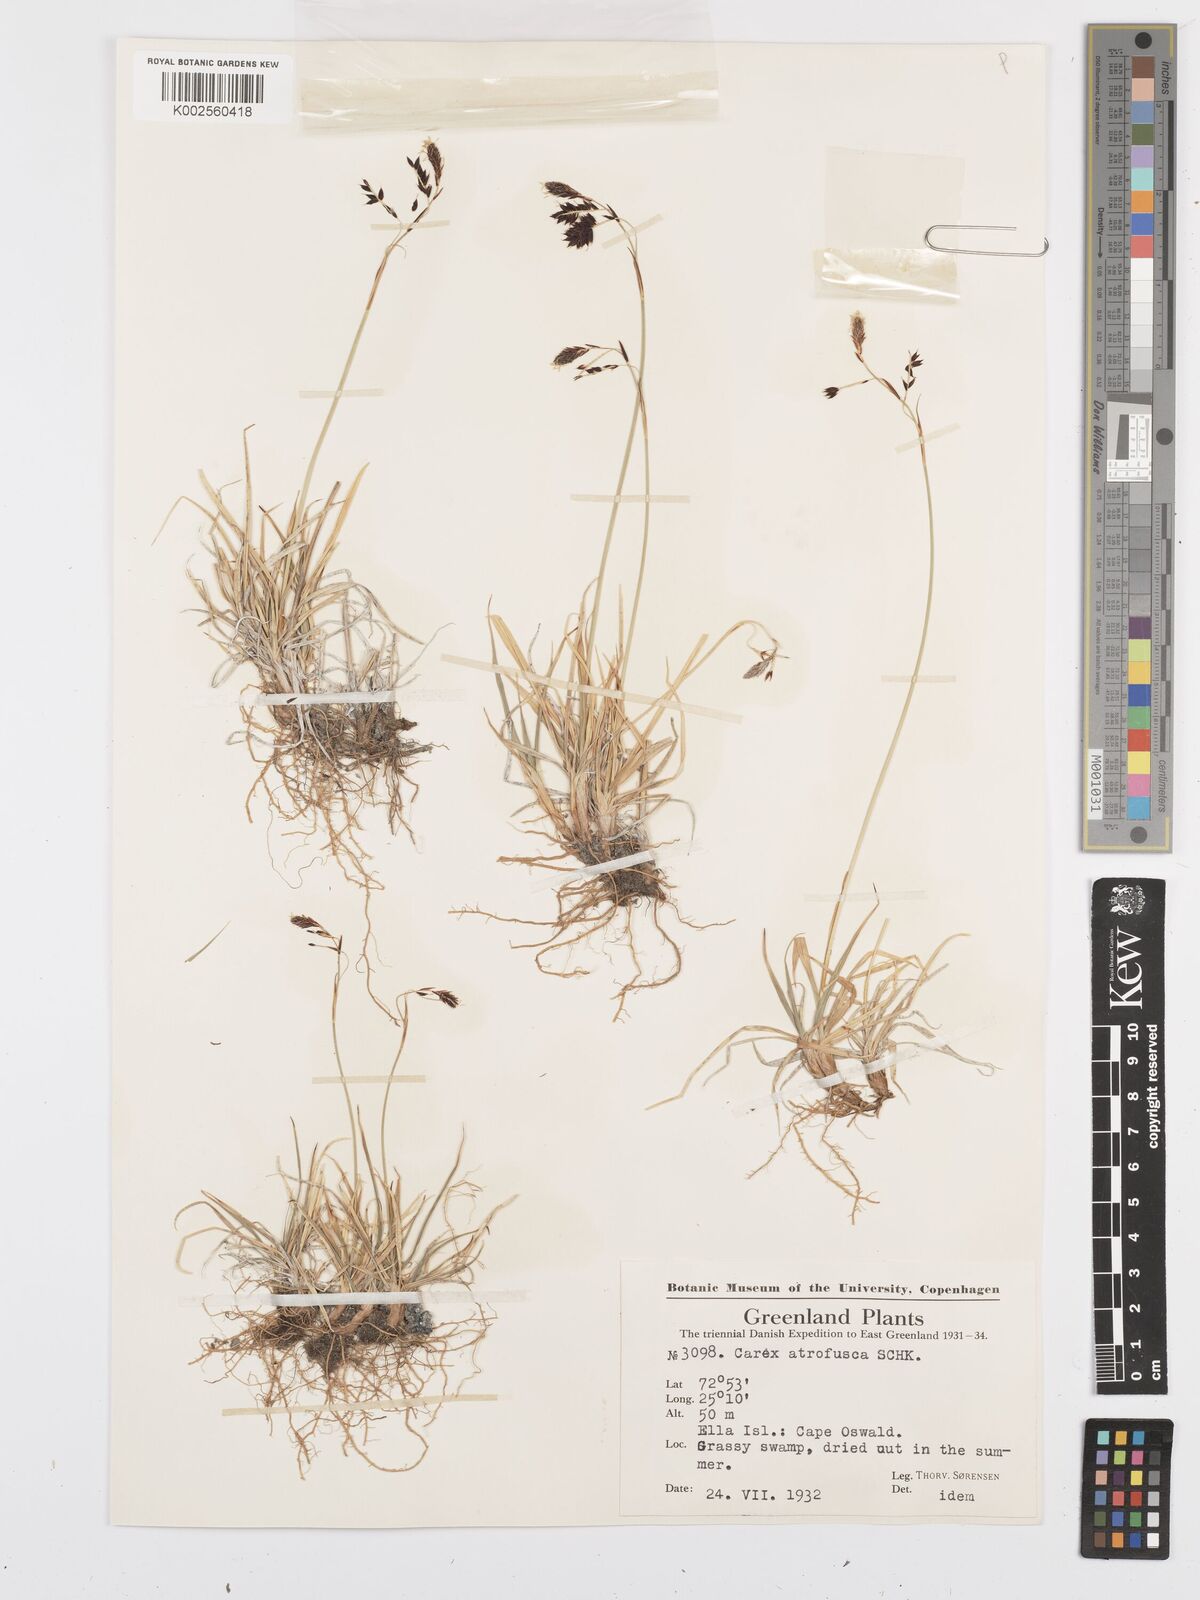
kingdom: Plantae
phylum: Tracheophyta
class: Liliopsida
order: Poales
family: Cyperaceae
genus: Carex
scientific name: Carex atrofusca
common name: Scorched alpine-sedge
